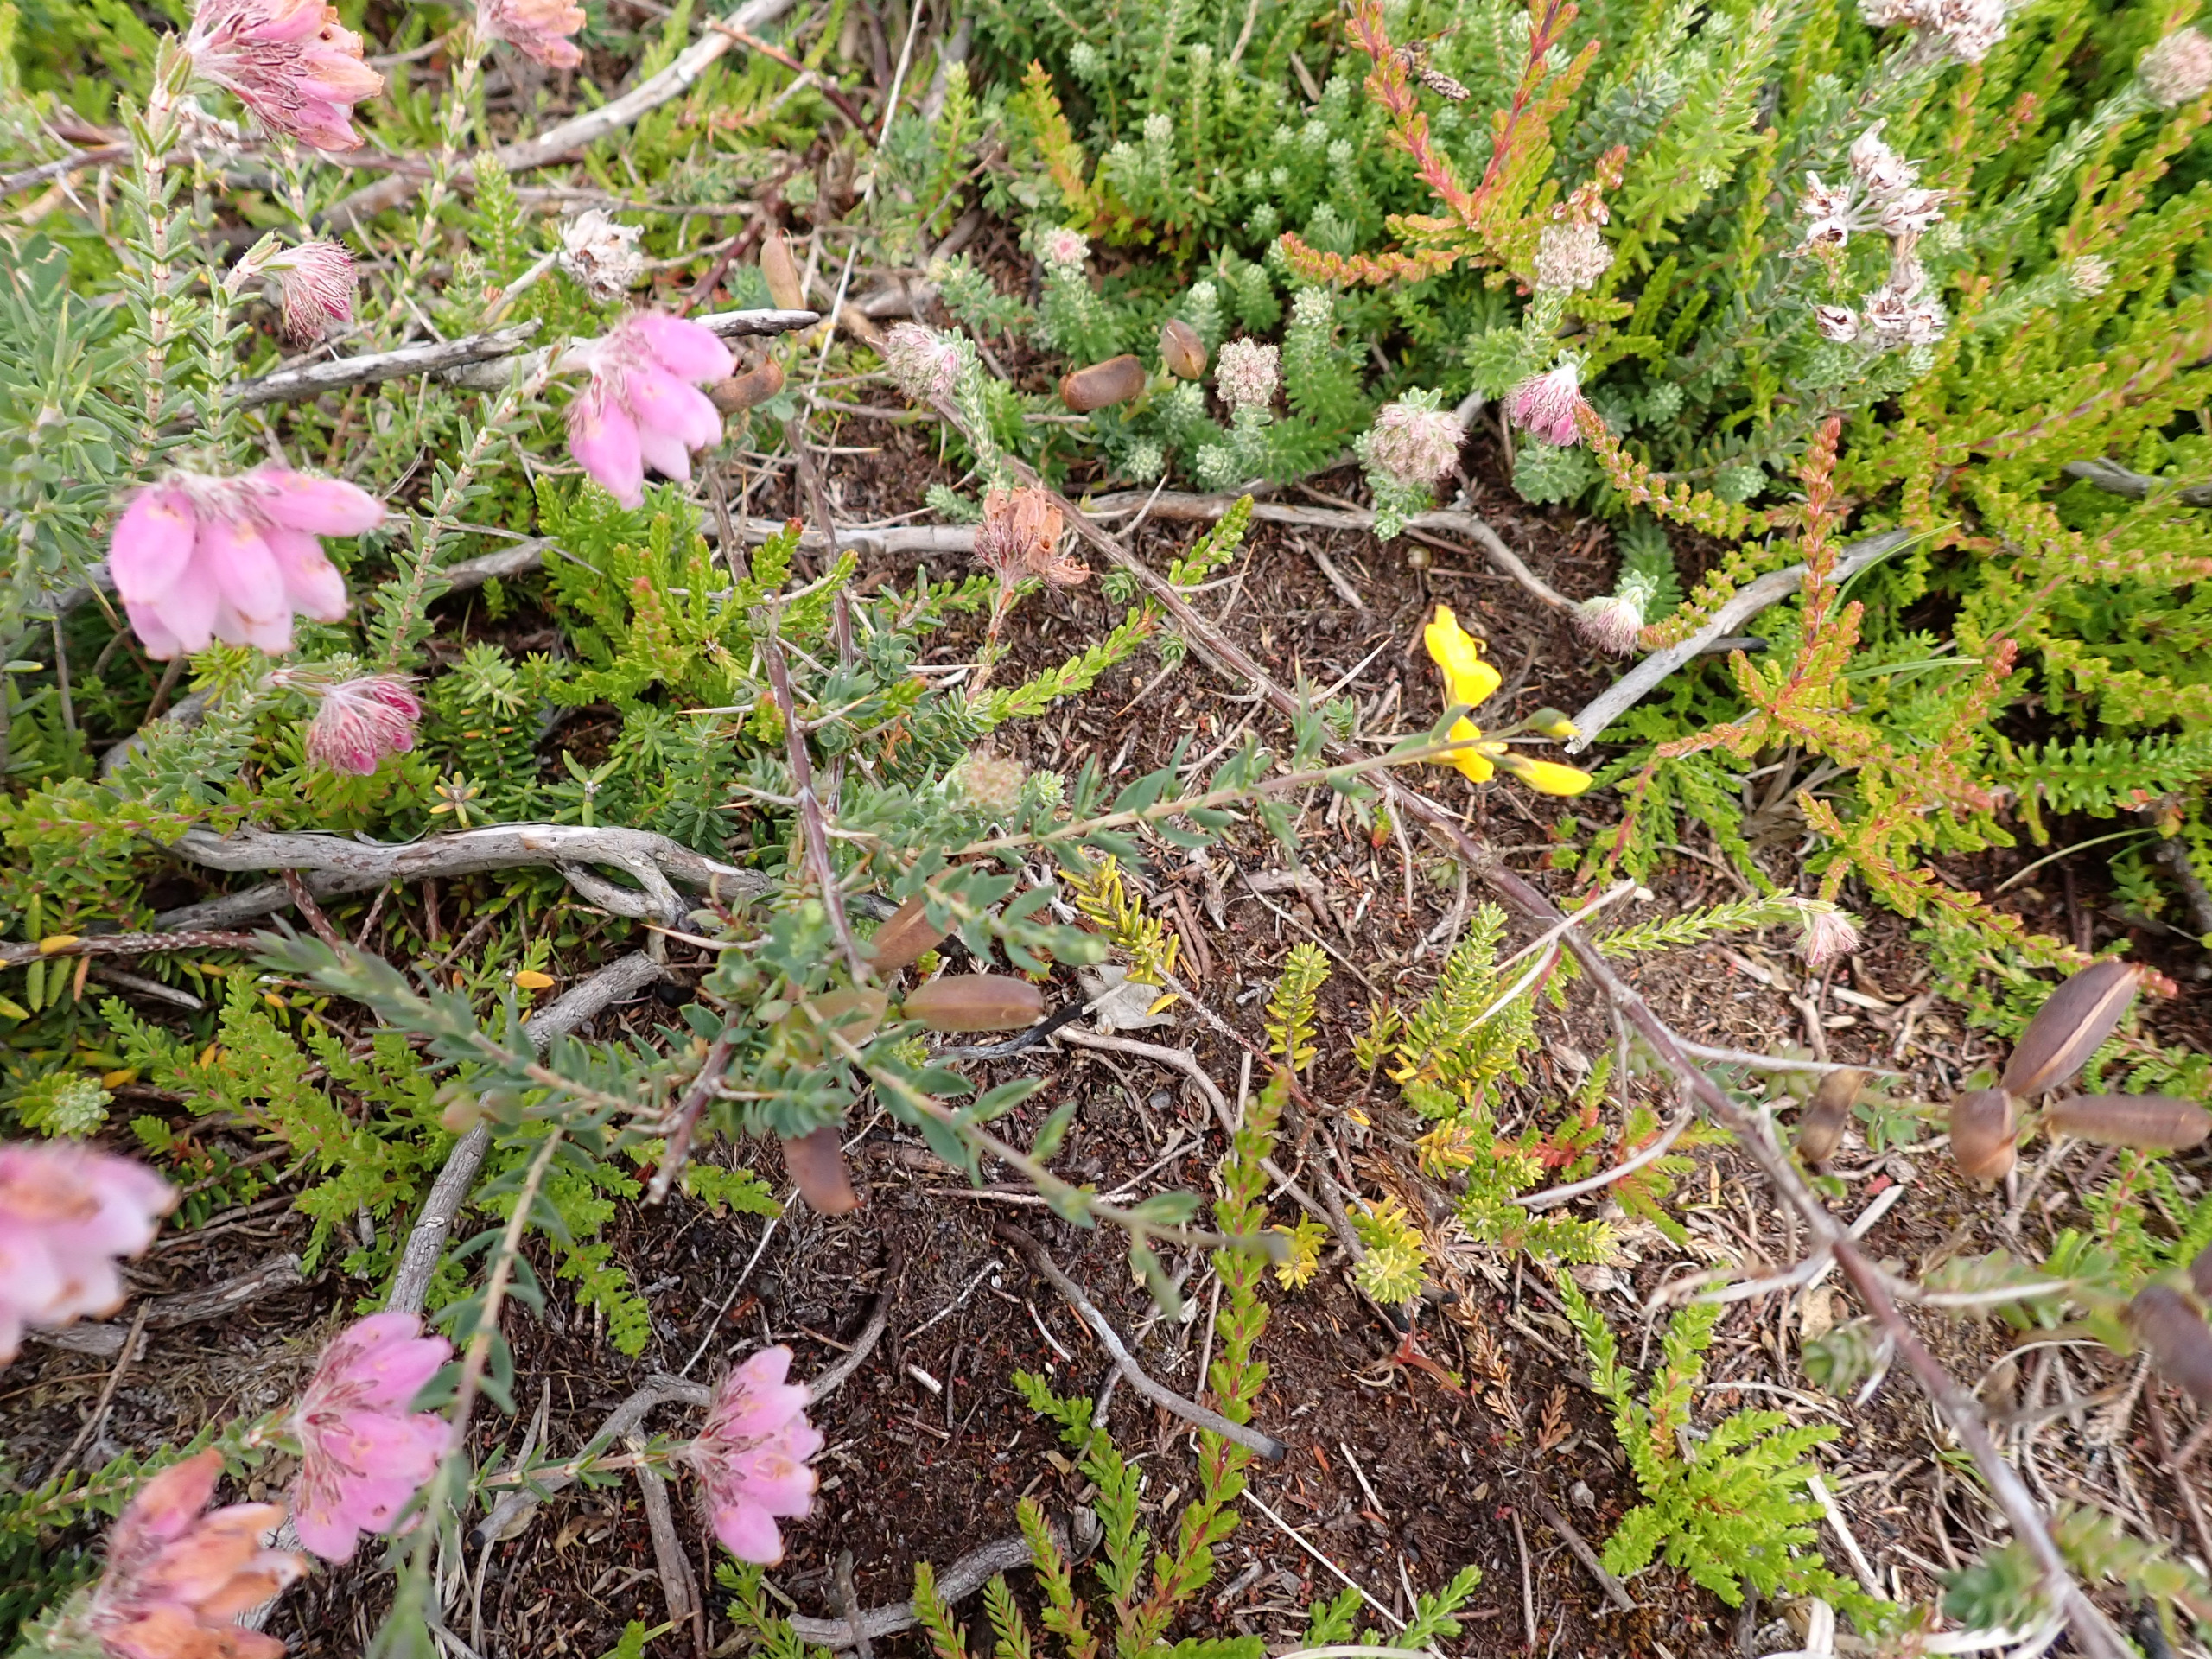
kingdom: Plantae
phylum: Tracheophyta
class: Magnoliopsida
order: Fabales
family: Fabaceae
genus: Genista
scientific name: Genista anglica
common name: Engelsk visse
